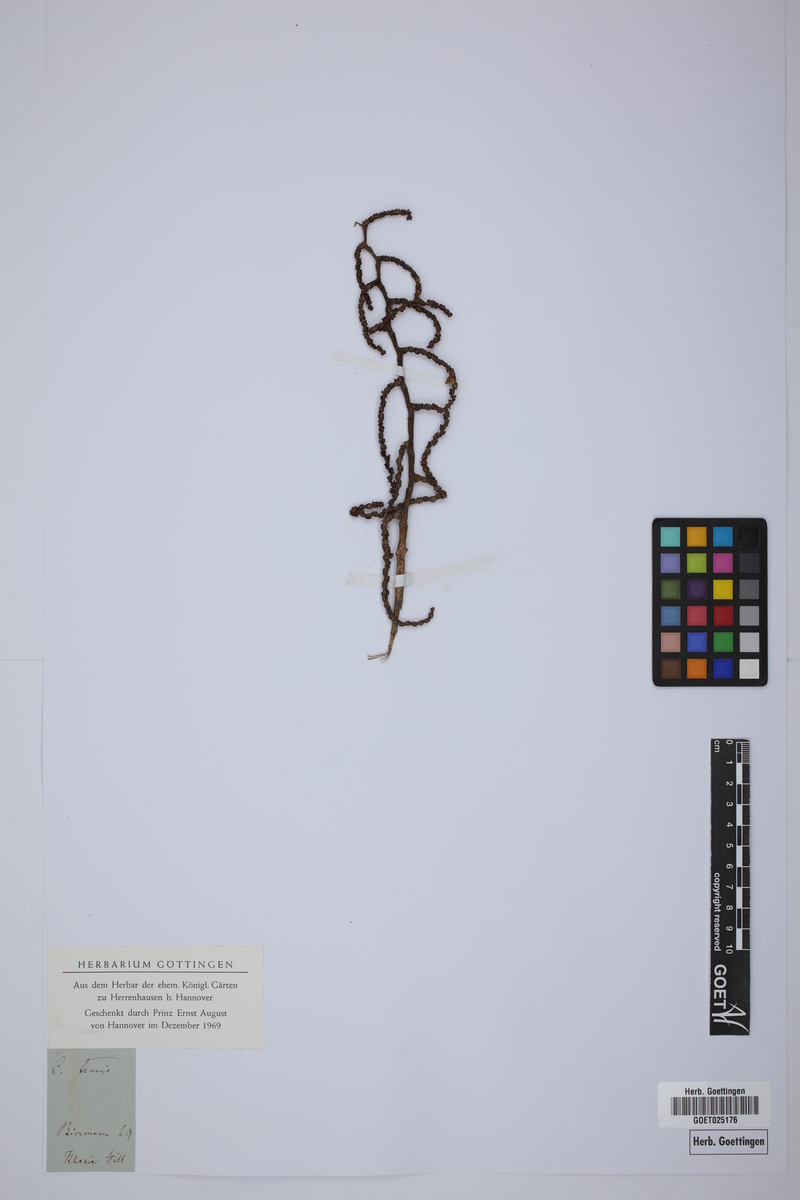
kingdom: Plantae
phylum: Tracheophyta
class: Liliopsida
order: Arecales
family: Arecaceae
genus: Calamus
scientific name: Calamus tenuis
